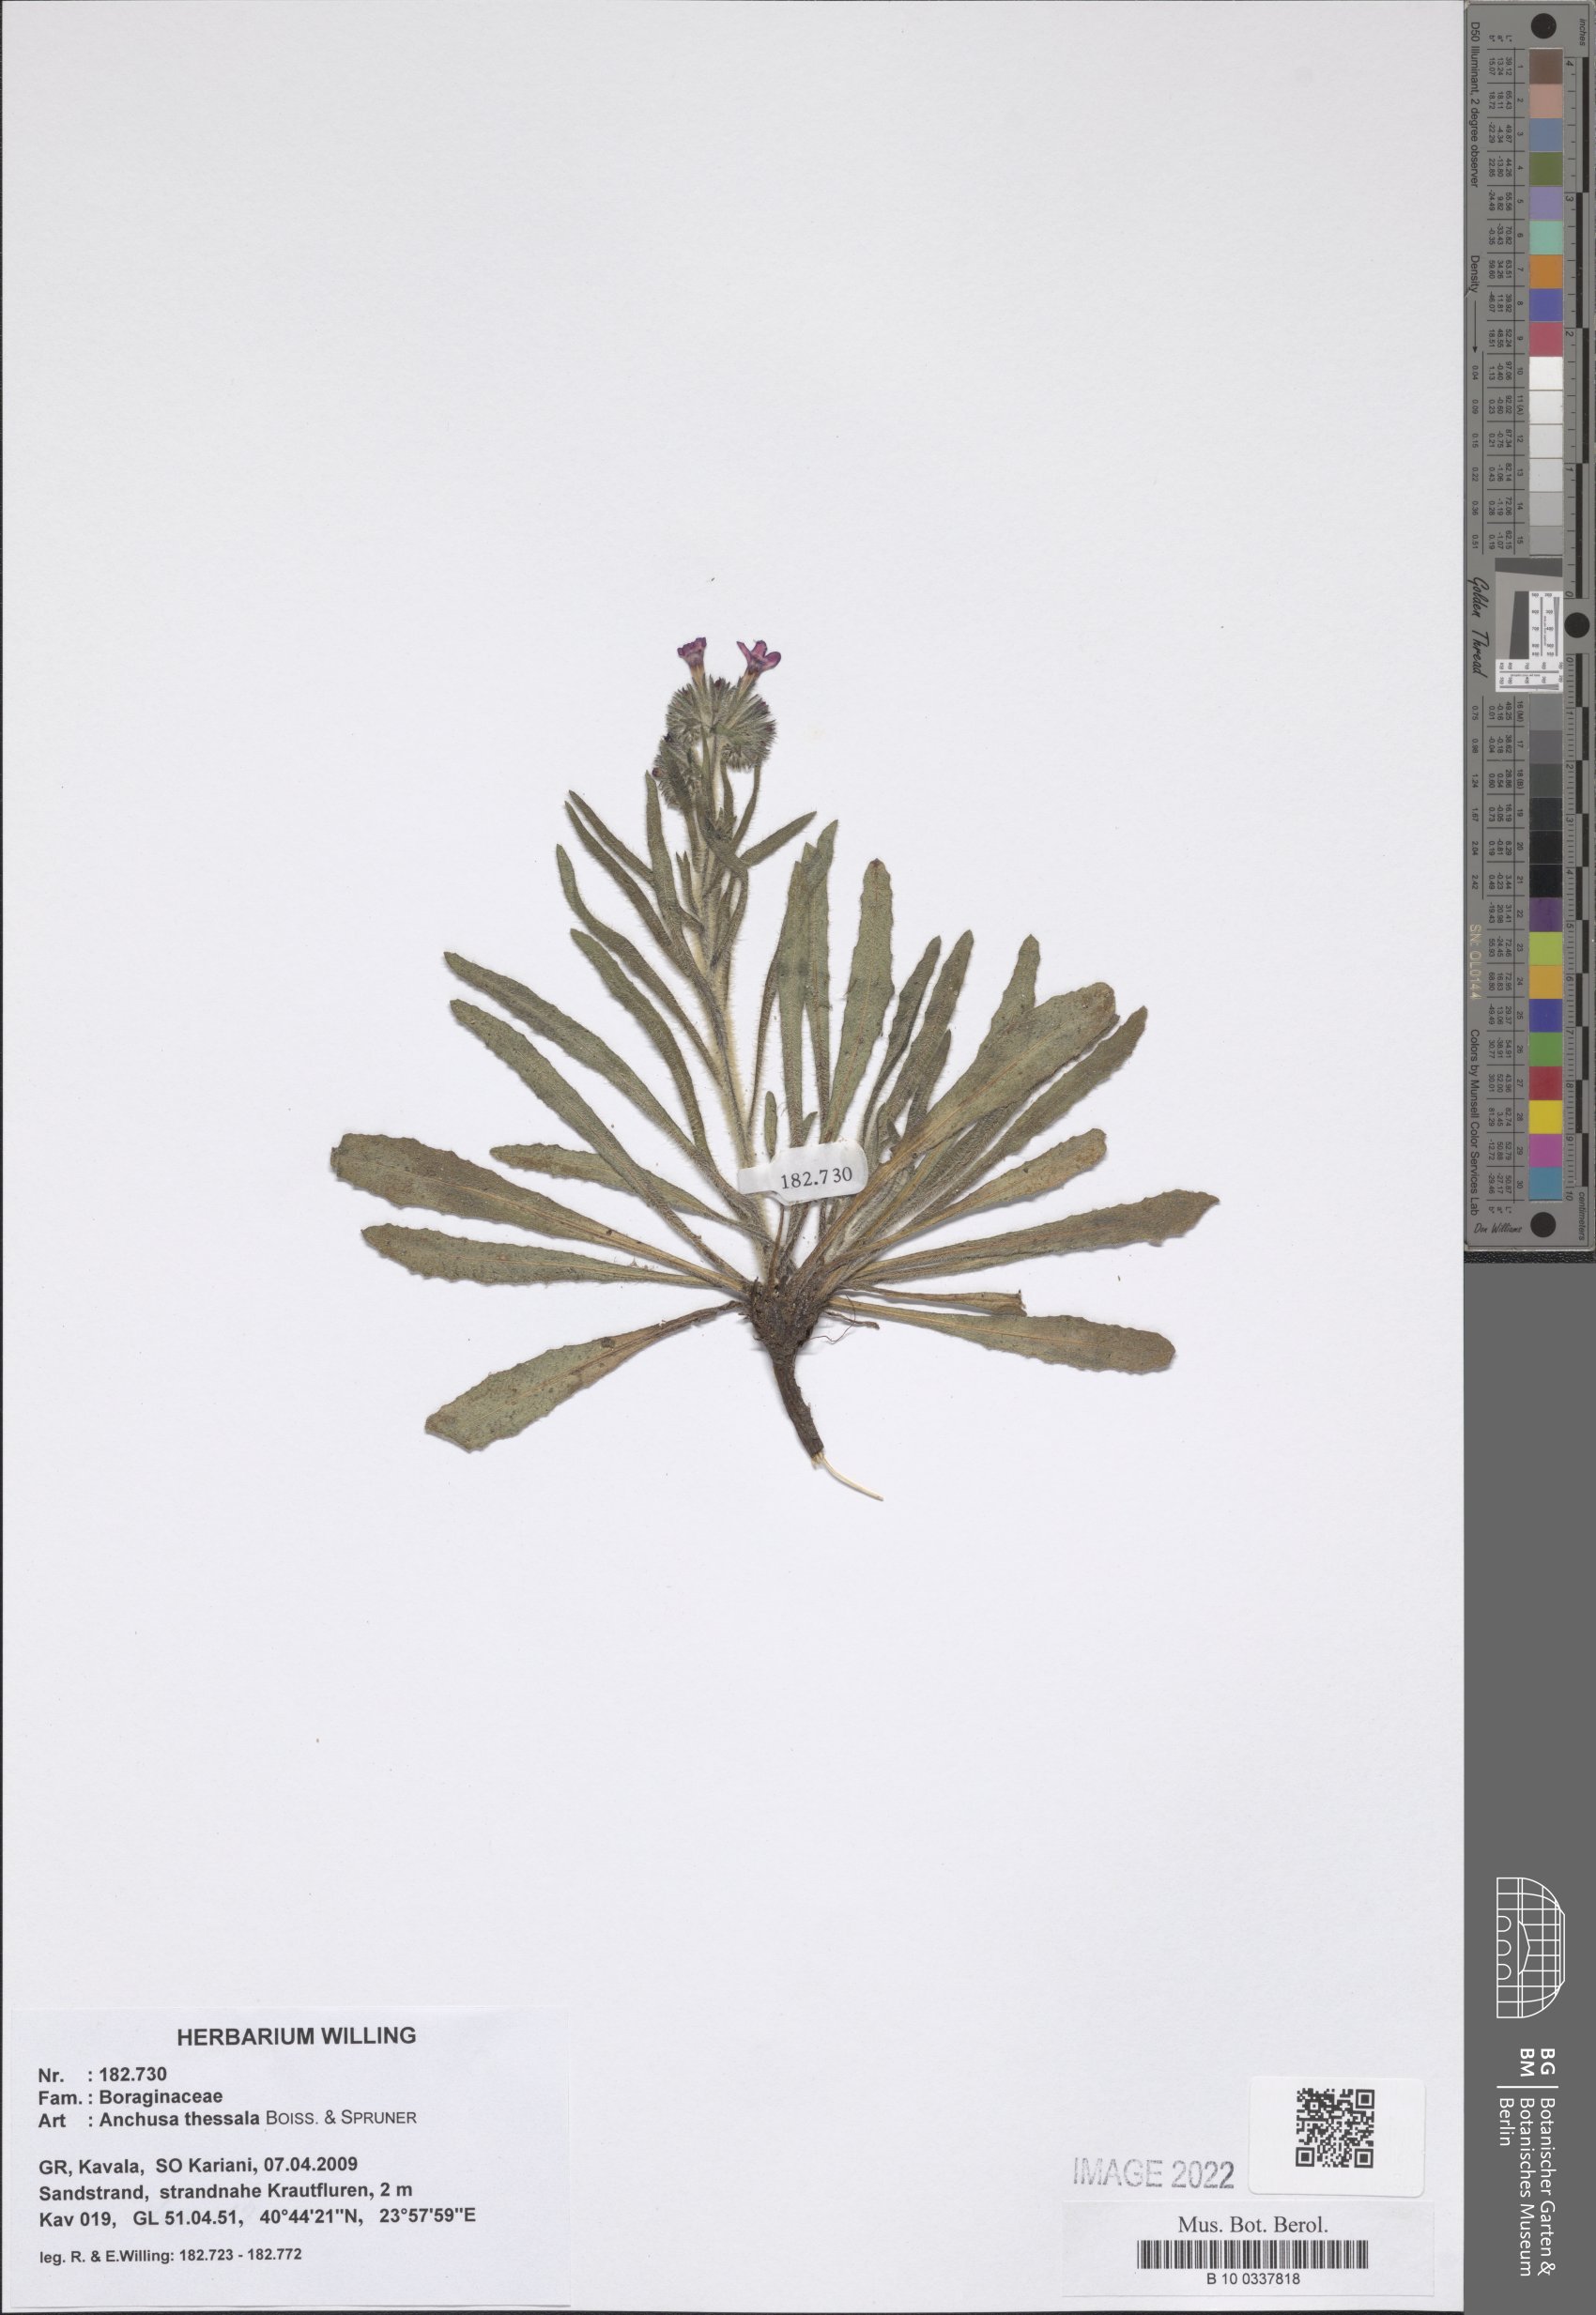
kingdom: Plantae
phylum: Tracheophyta
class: Magnoliopsida
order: Boraginales
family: Boraginaceae
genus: Anchusa
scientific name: Anchusa thessala
